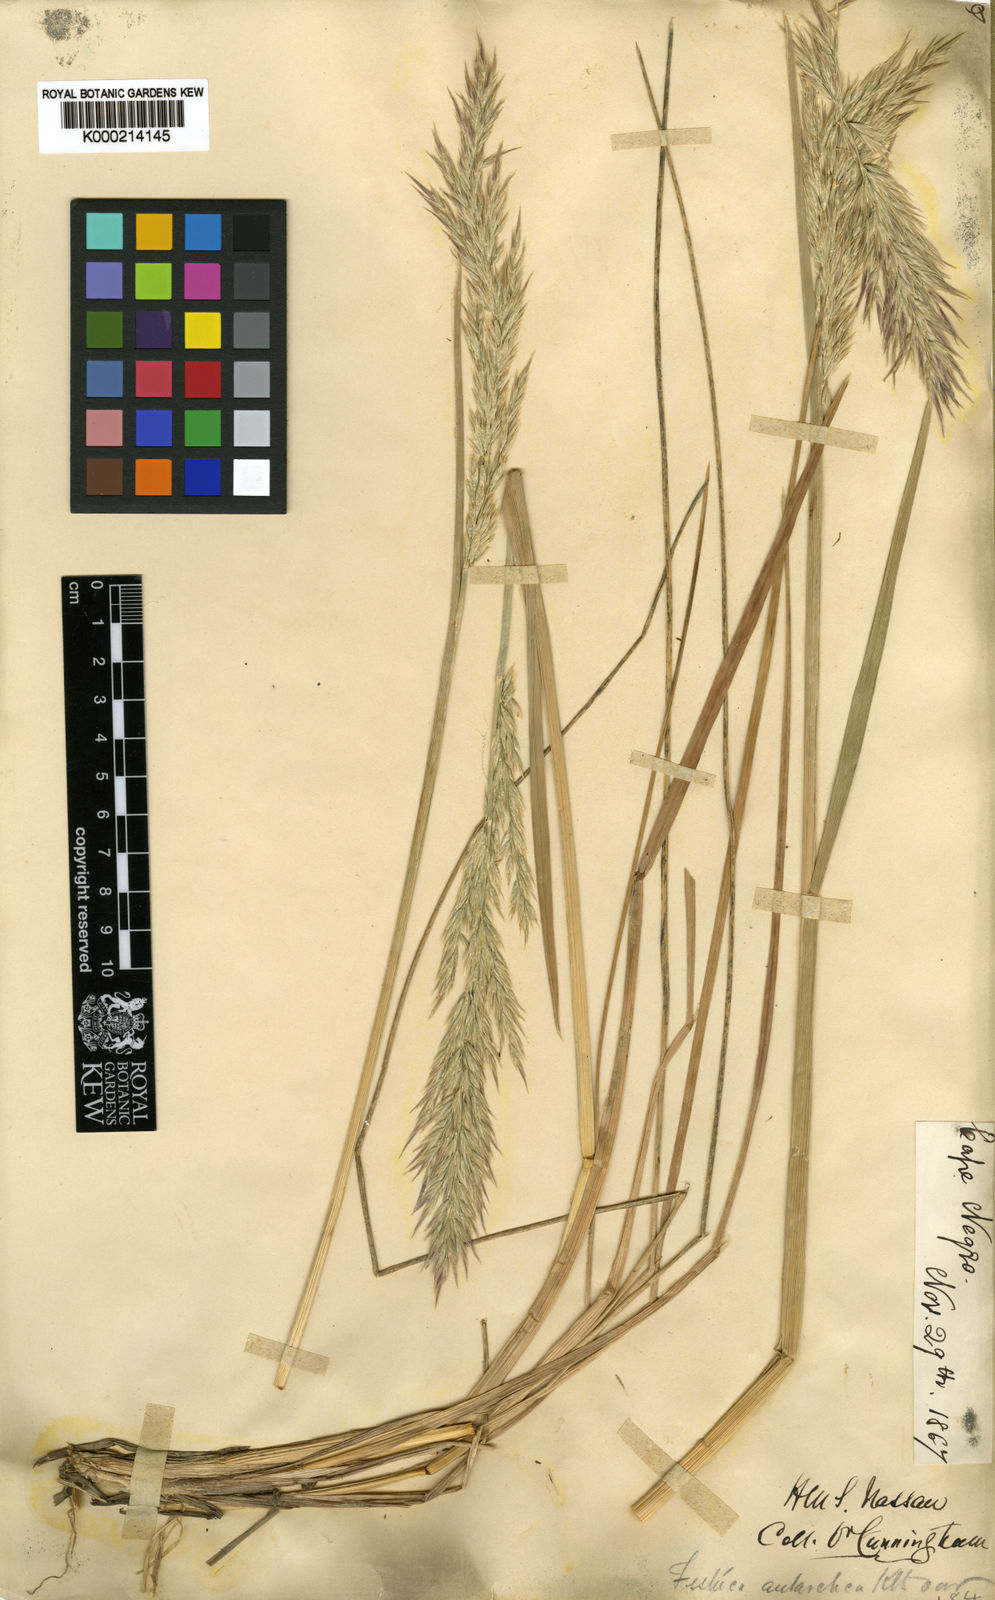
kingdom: Plantae
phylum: Tracheophyta
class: Liliopsida
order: Poales
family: Poaceae
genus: Poa
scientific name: Poa alopecurus
